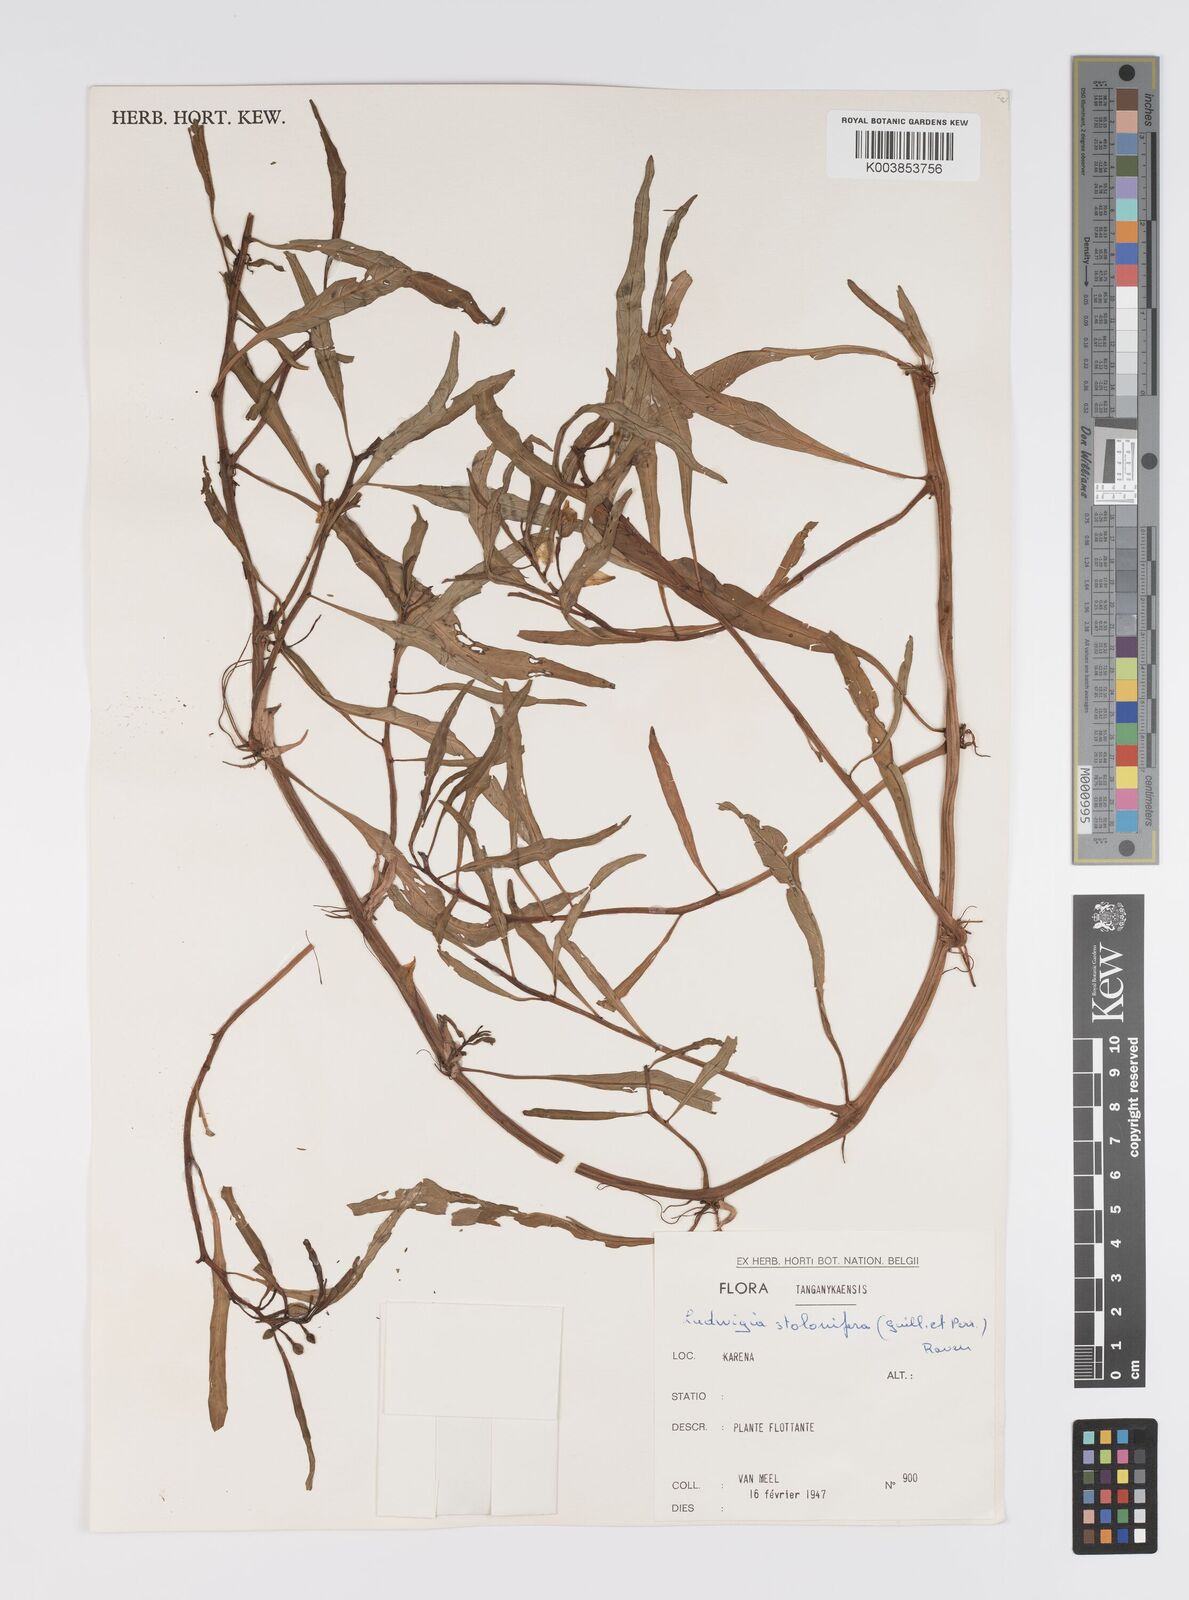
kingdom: Plantae
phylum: Tracheophyta
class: Magnoliopsida
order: Myrtales
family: Onagraceae
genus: Ludwigia
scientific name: Ludwigia adscendens
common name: Creeping water primrose
